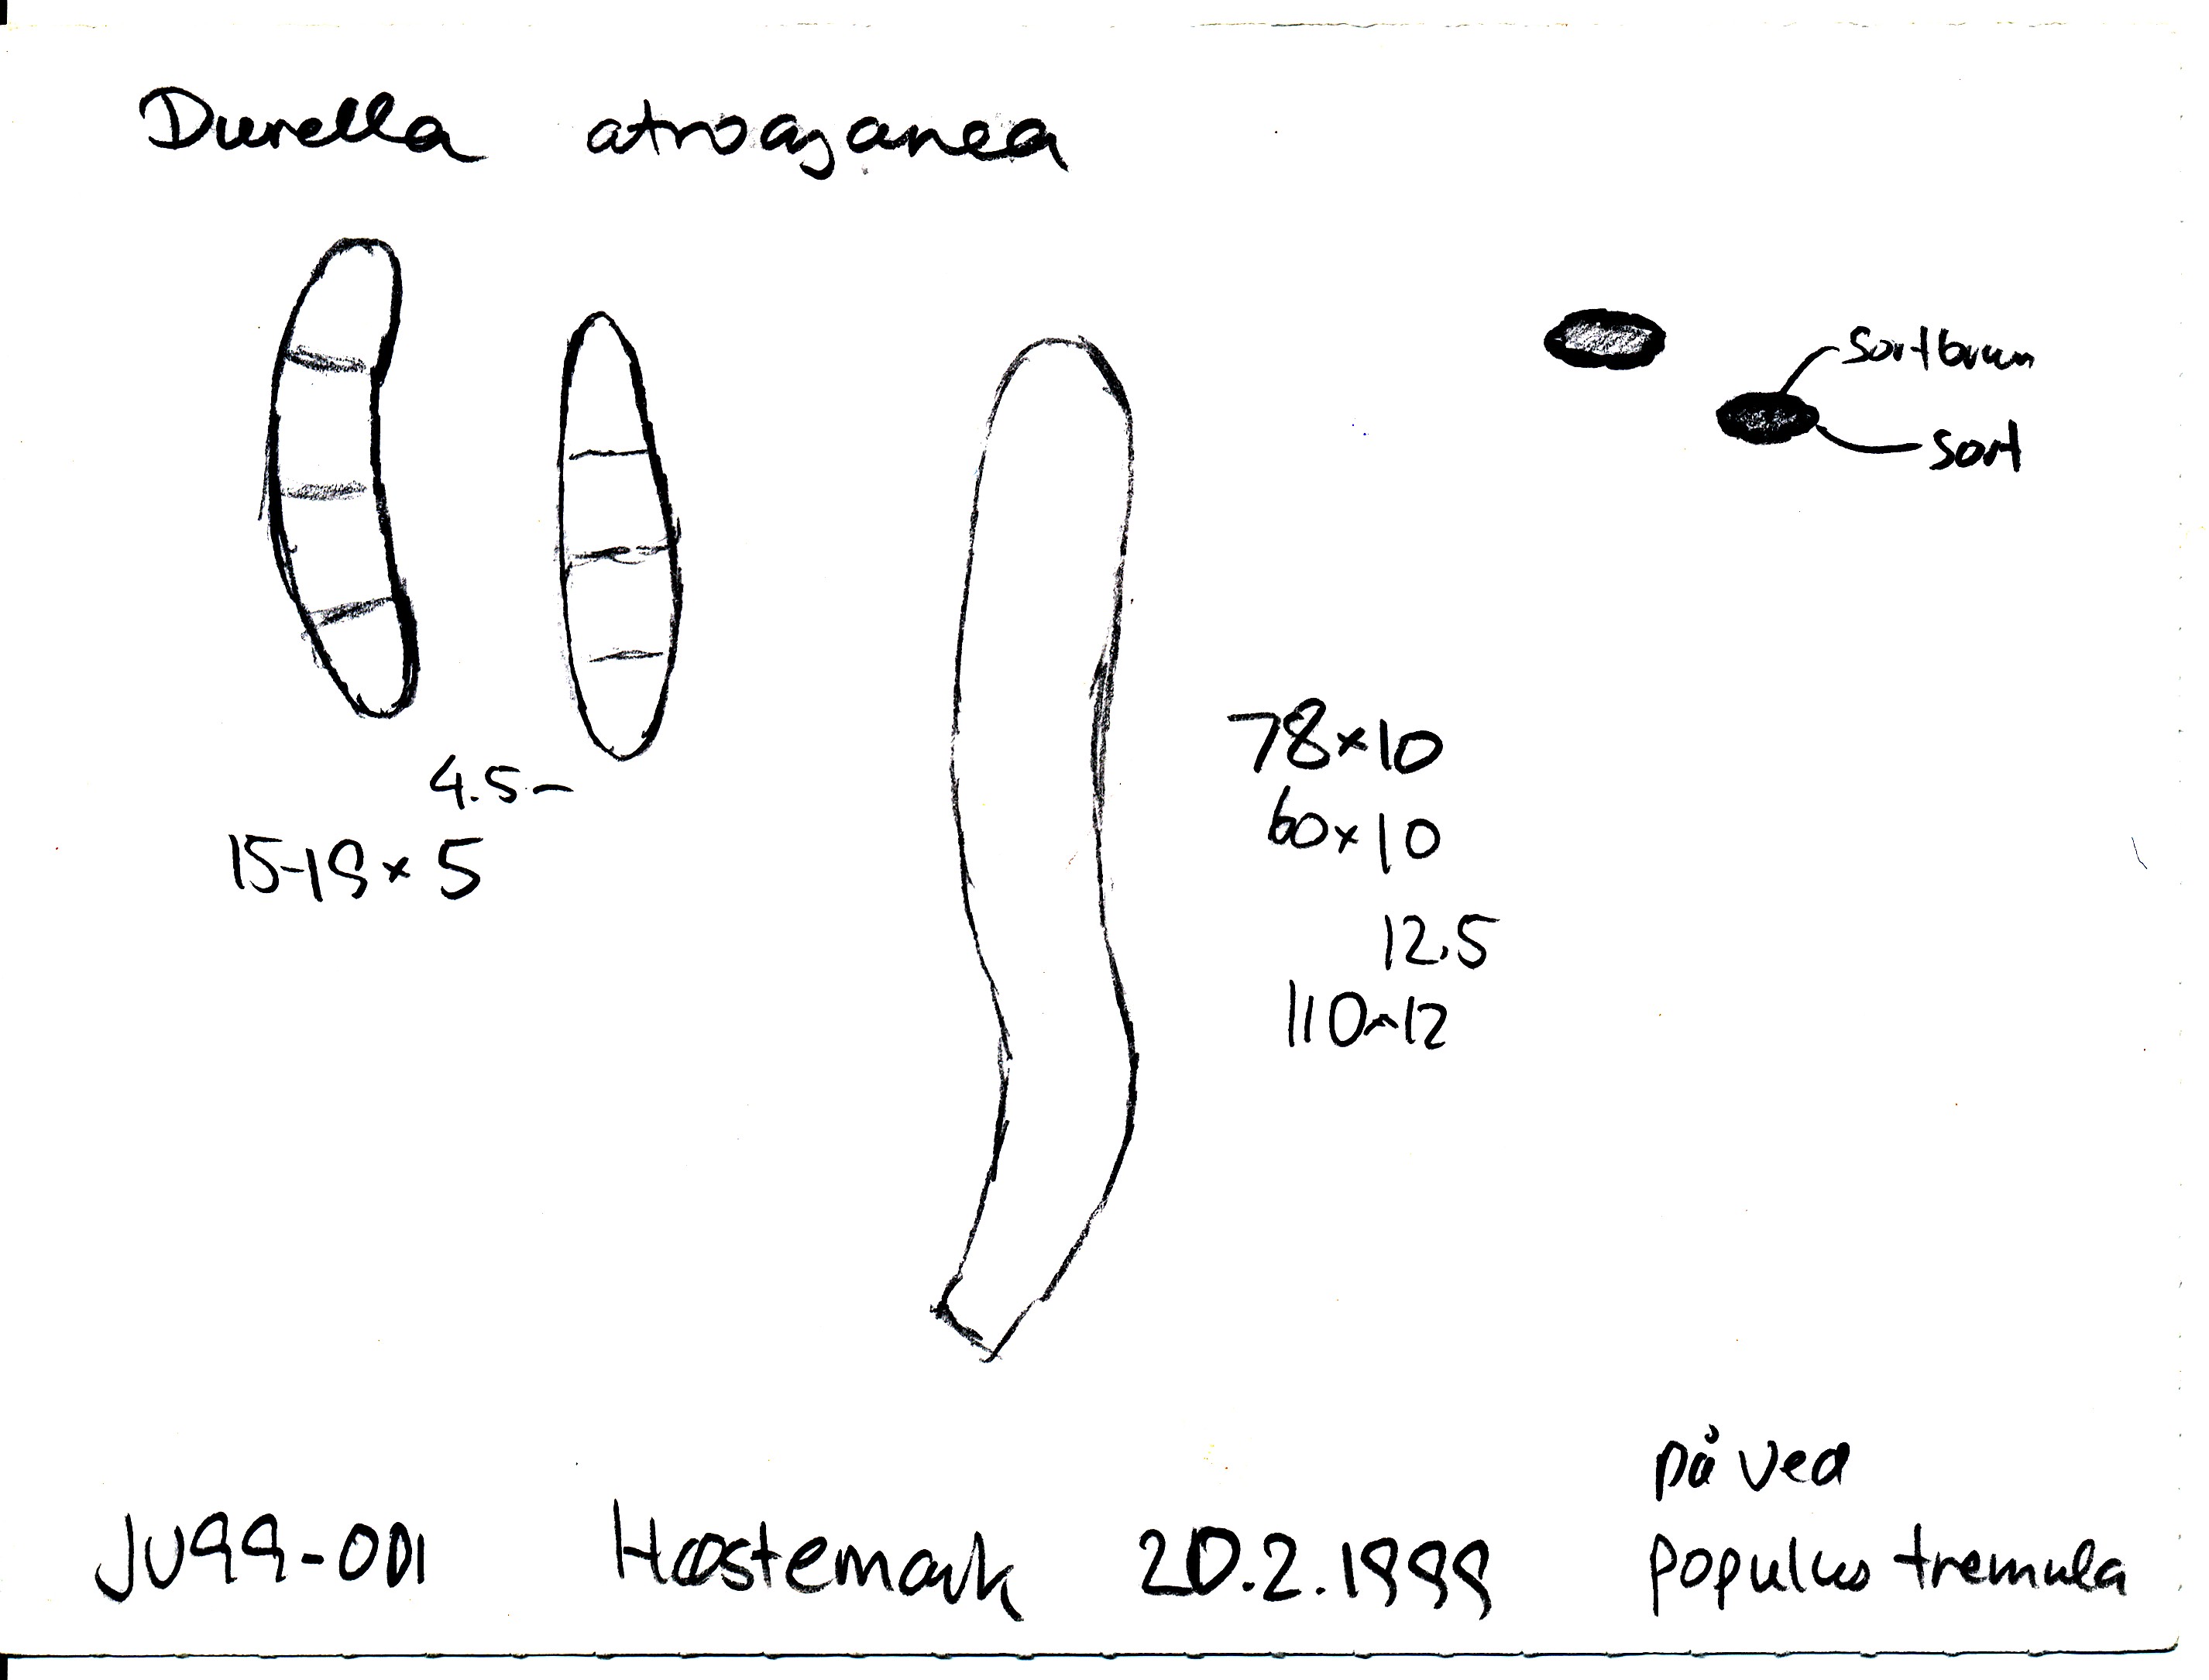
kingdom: Fungi
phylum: Ascomycota
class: Leotiomycetes
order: Helotiales
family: Helotiaceae
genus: Durella
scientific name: Durella atrocyanea
